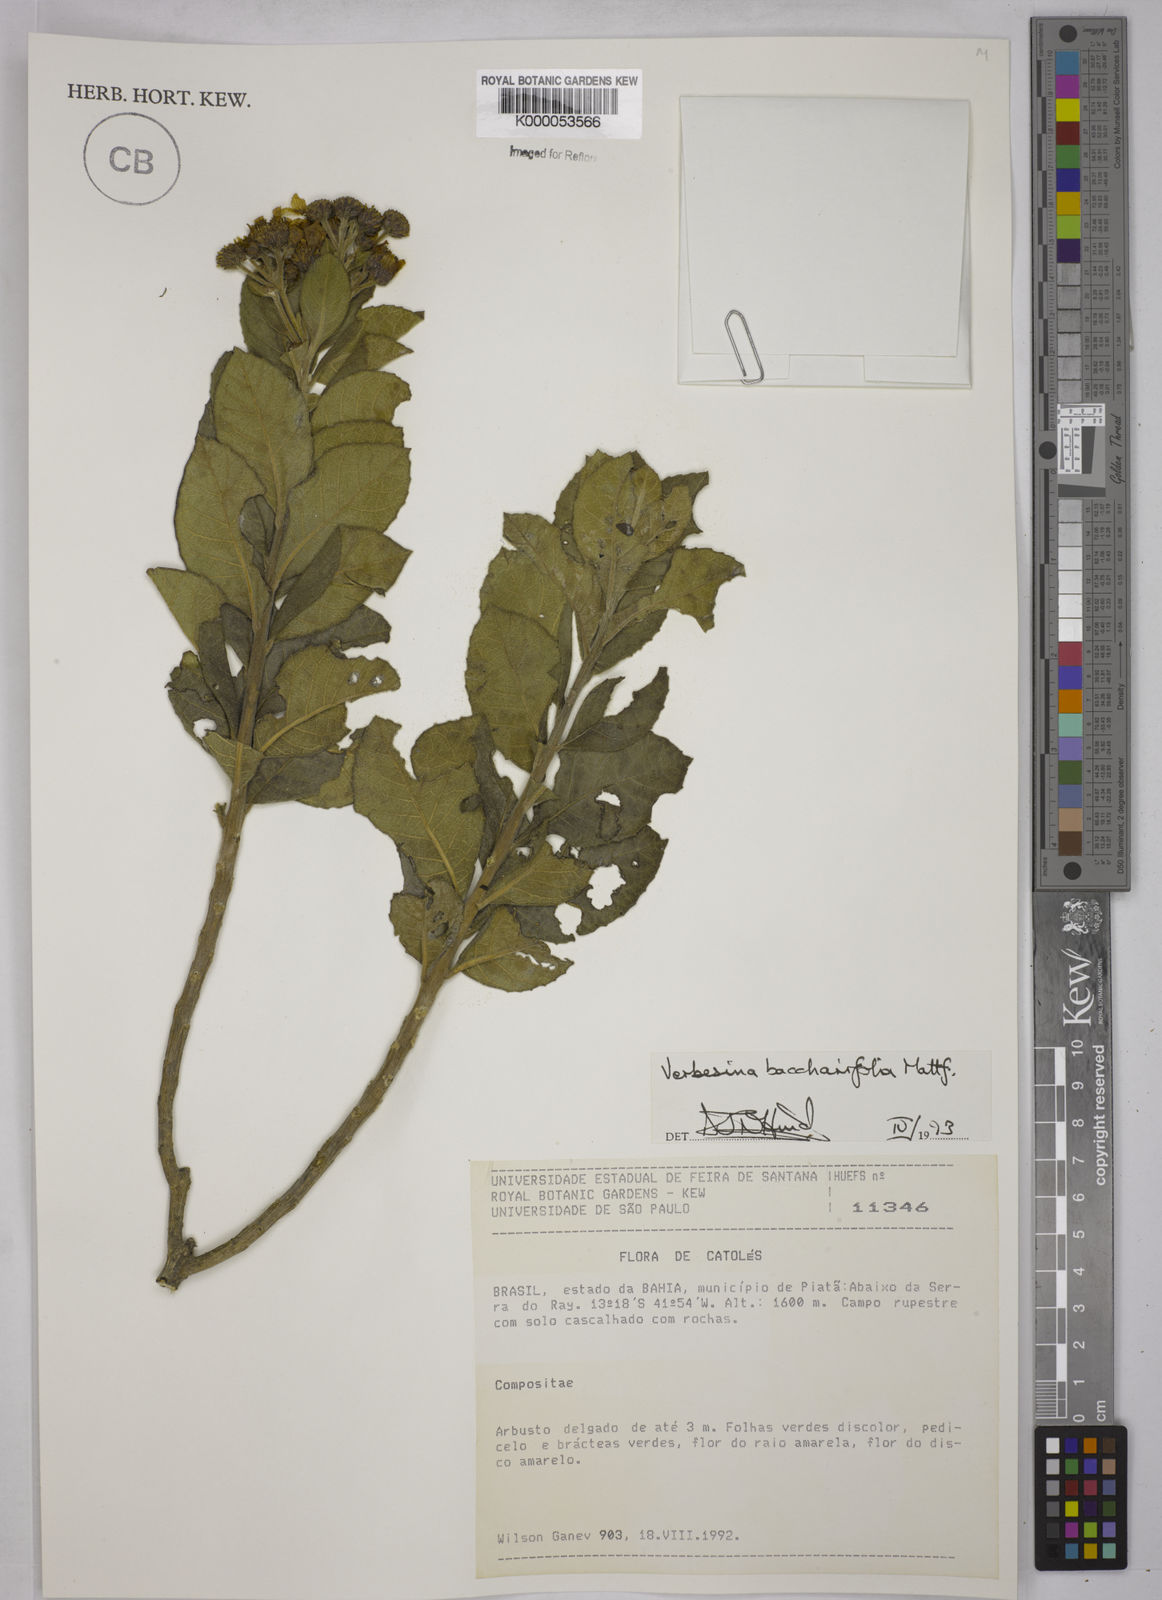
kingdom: Plantae
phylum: Tracheophyta
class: Magnoliopsida
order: Asterales
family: Asteraceae
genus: Verbesina
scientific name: Verbesina baccharifolia
